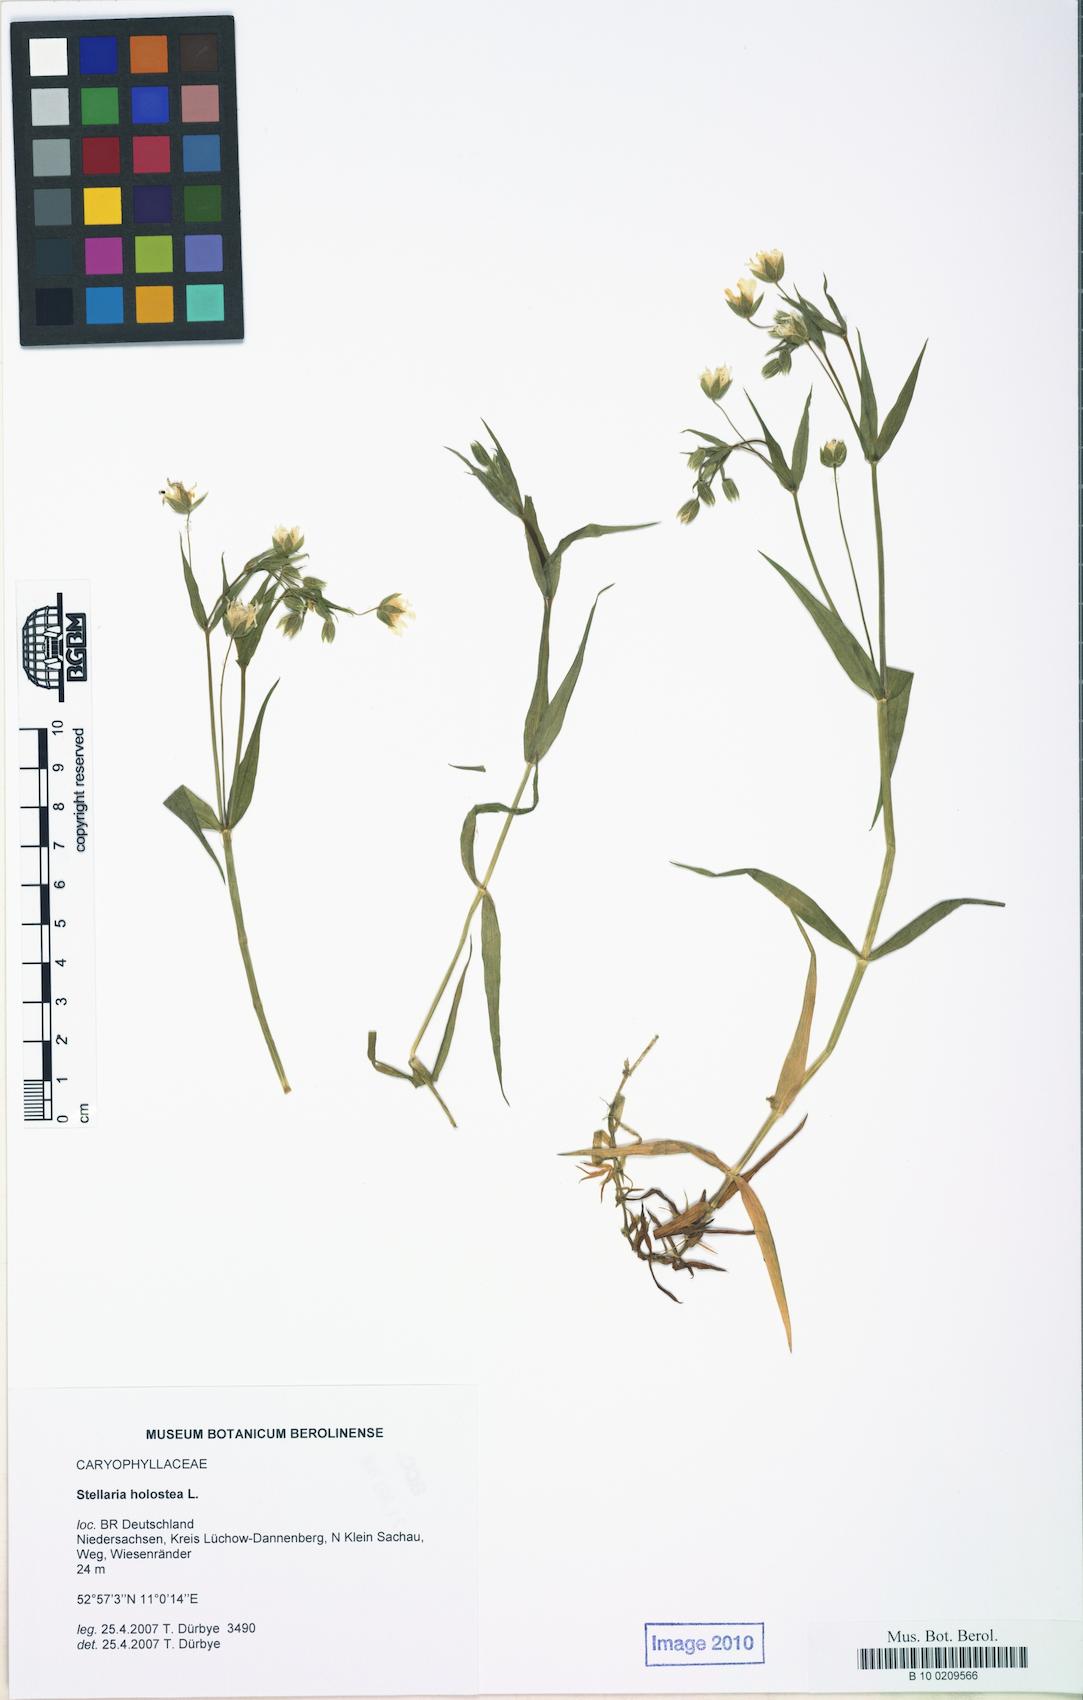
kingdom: Plantae
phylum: Tracheophyta
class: Magnoliopsida
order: Caryophyllales
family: Caryophyllaceae
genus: Rabelera
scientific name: Rabelera holostea
